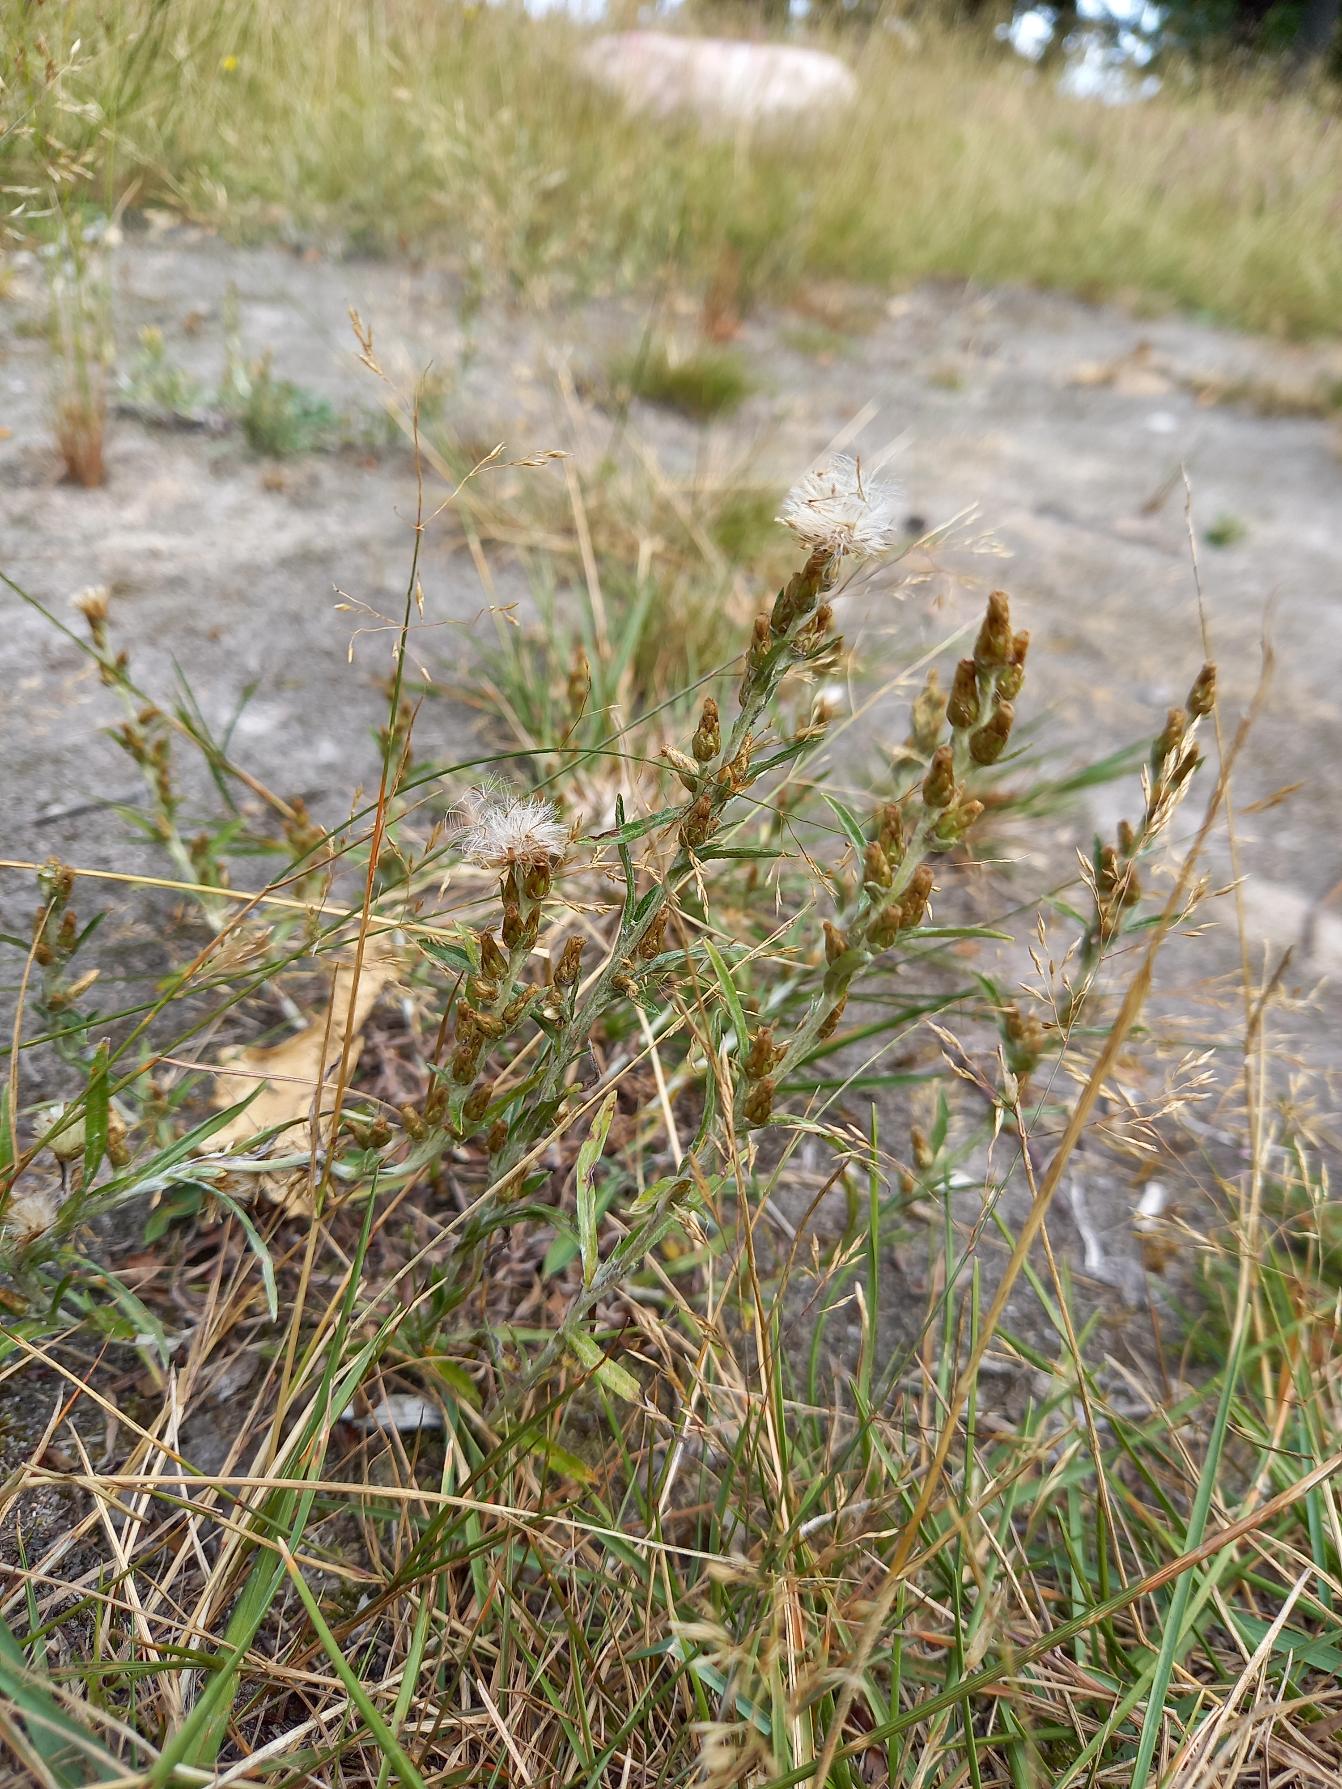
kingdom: Plantae
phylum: Tracheophyta
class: Magnoliopsida
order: Asterales
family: Asteraceae
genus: Omalotheca
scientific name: Omalotheca sylvatica
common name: Rank evighedsblomst
